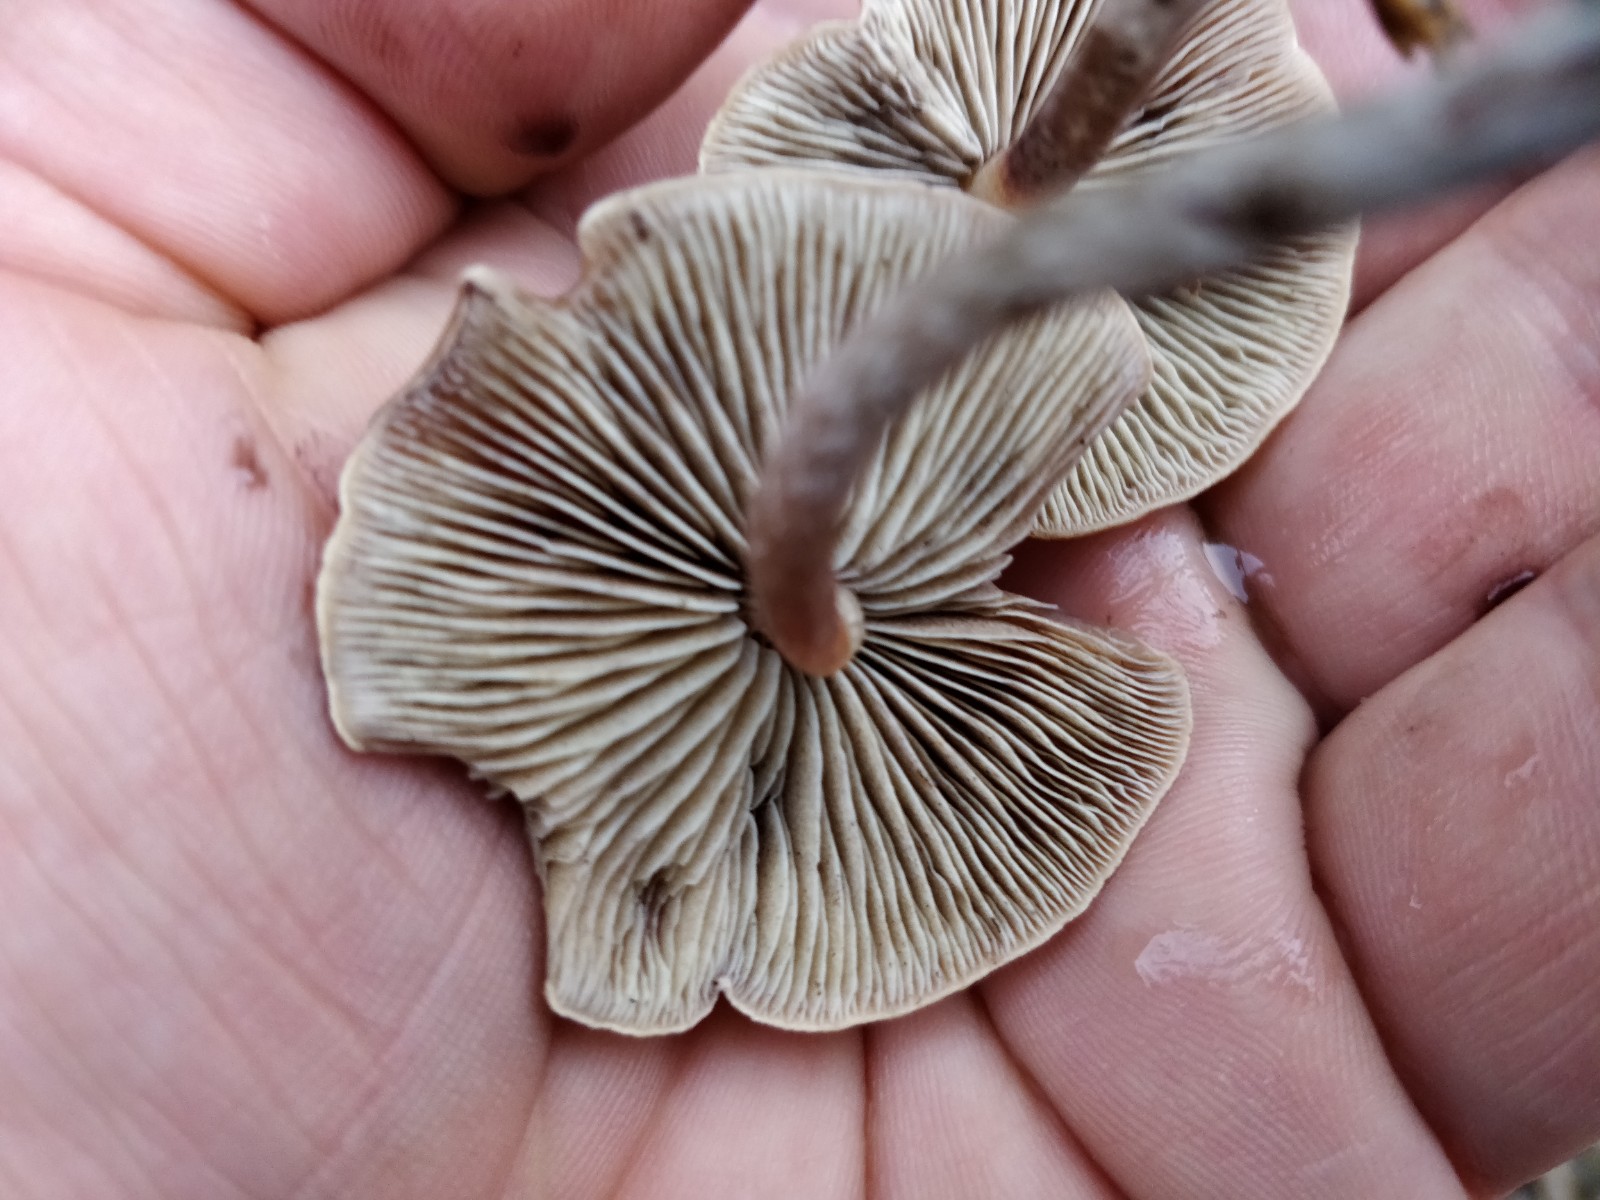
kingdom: Fungi
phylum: Basidiomycota
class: Agaricomycetes
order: Agaricales
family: Strophariaceae
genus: Hypholoma
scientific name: Hypholoma marginatum
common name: enlig svovlhat
